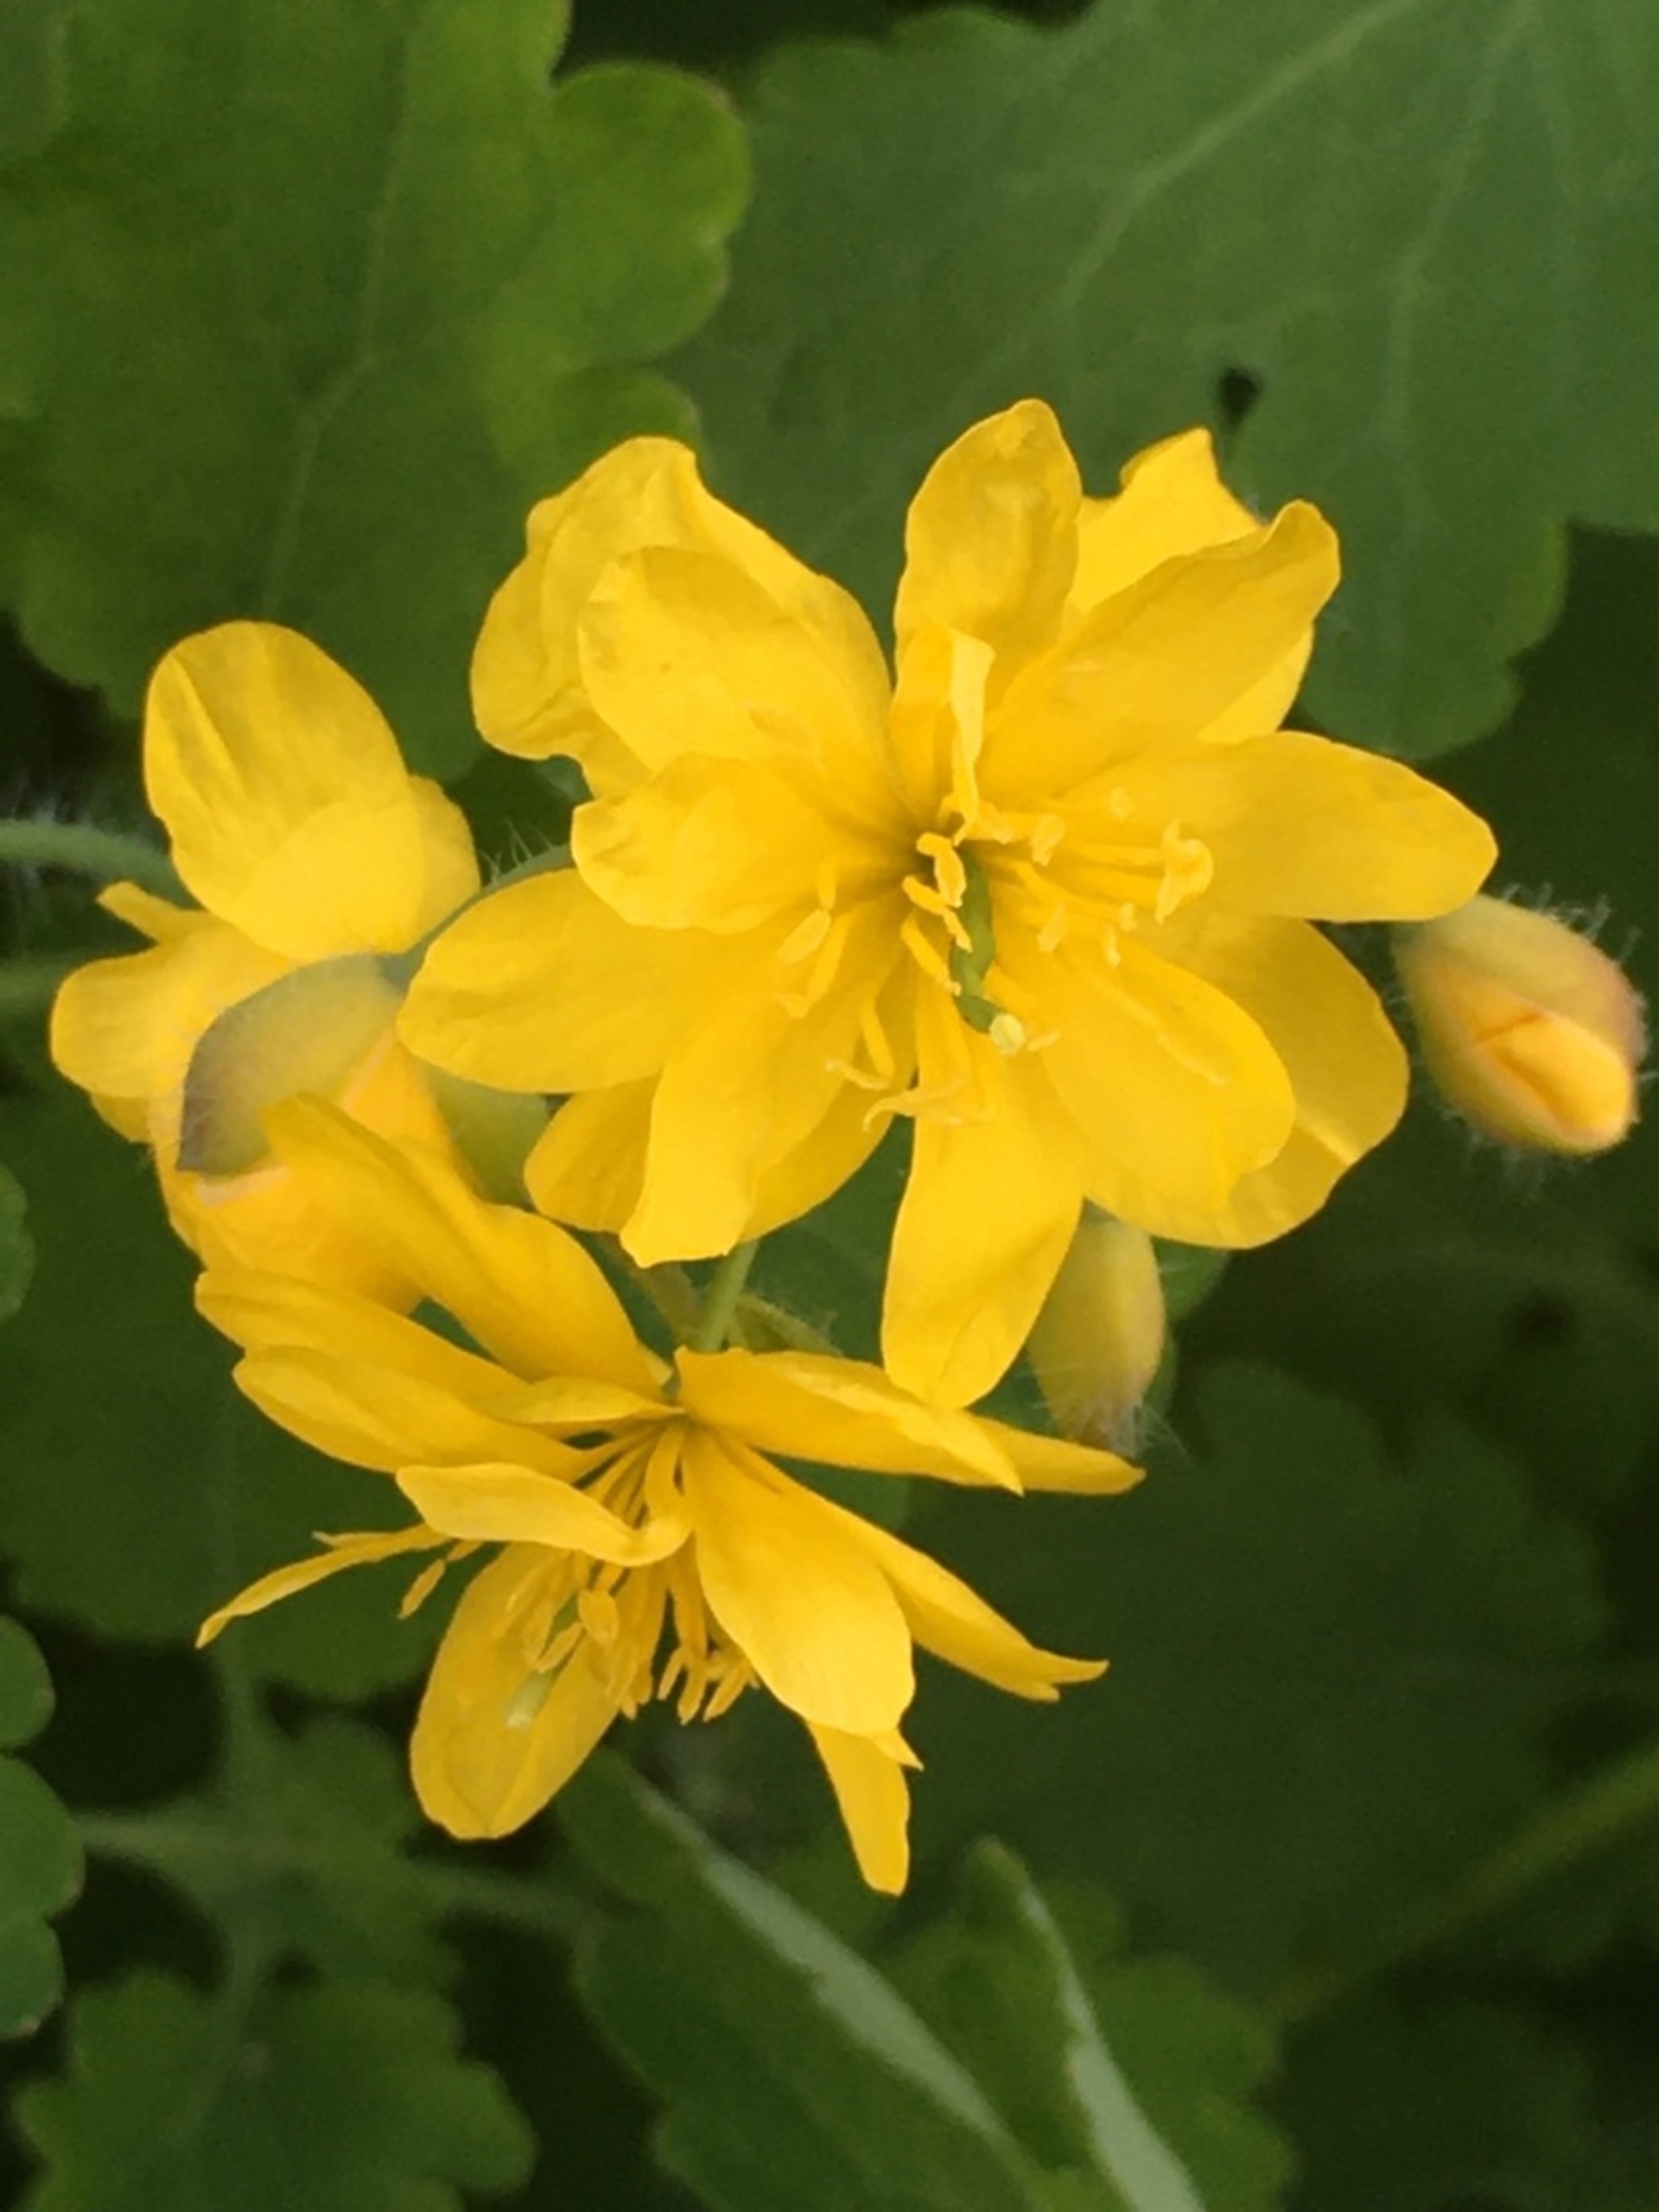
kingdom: Plantae
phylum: Tracheophyta
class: Magnoliopsida
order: Ranunculales
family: Papaveraceae
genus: Chelidonium
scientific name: Chelidonium majus
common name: Svaleurt
